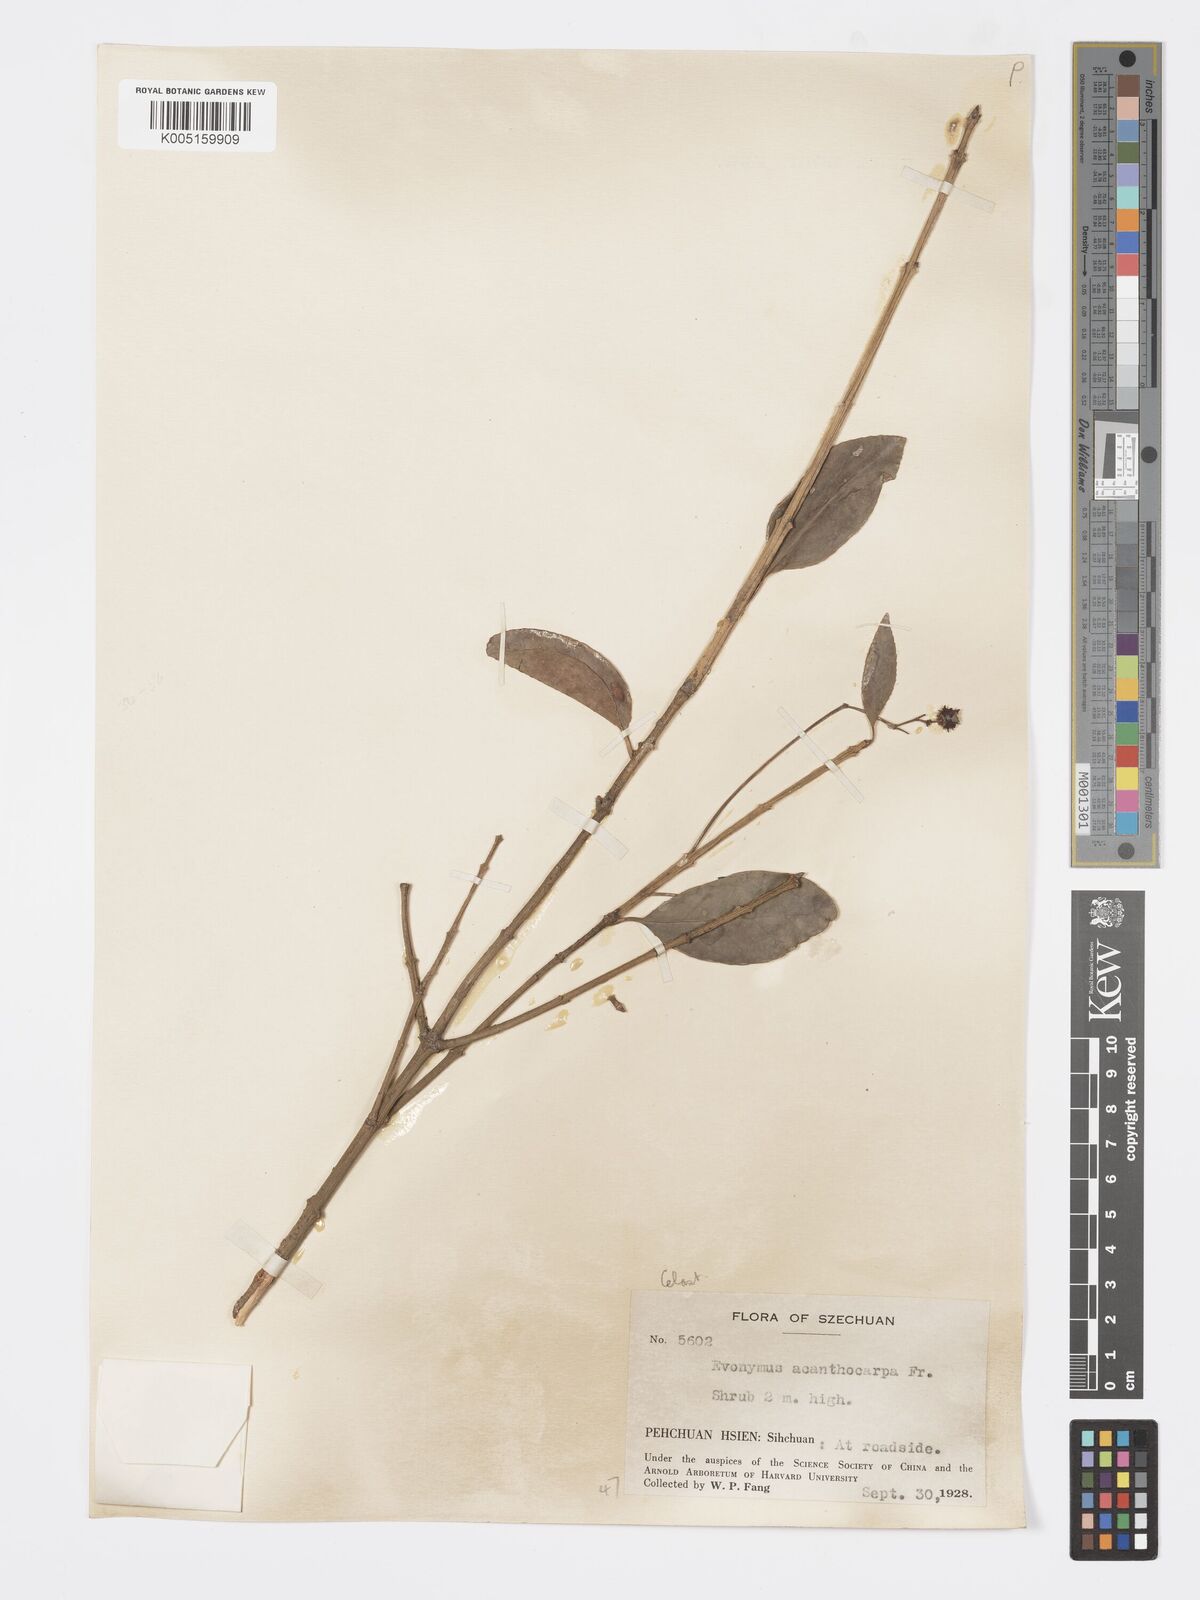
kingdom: Plantae
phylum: Tracheophyta
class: Magnoliopsida
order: Celastrales
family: Celastraceae
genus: Euonymus
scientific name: Euonymus acanthocarpus
